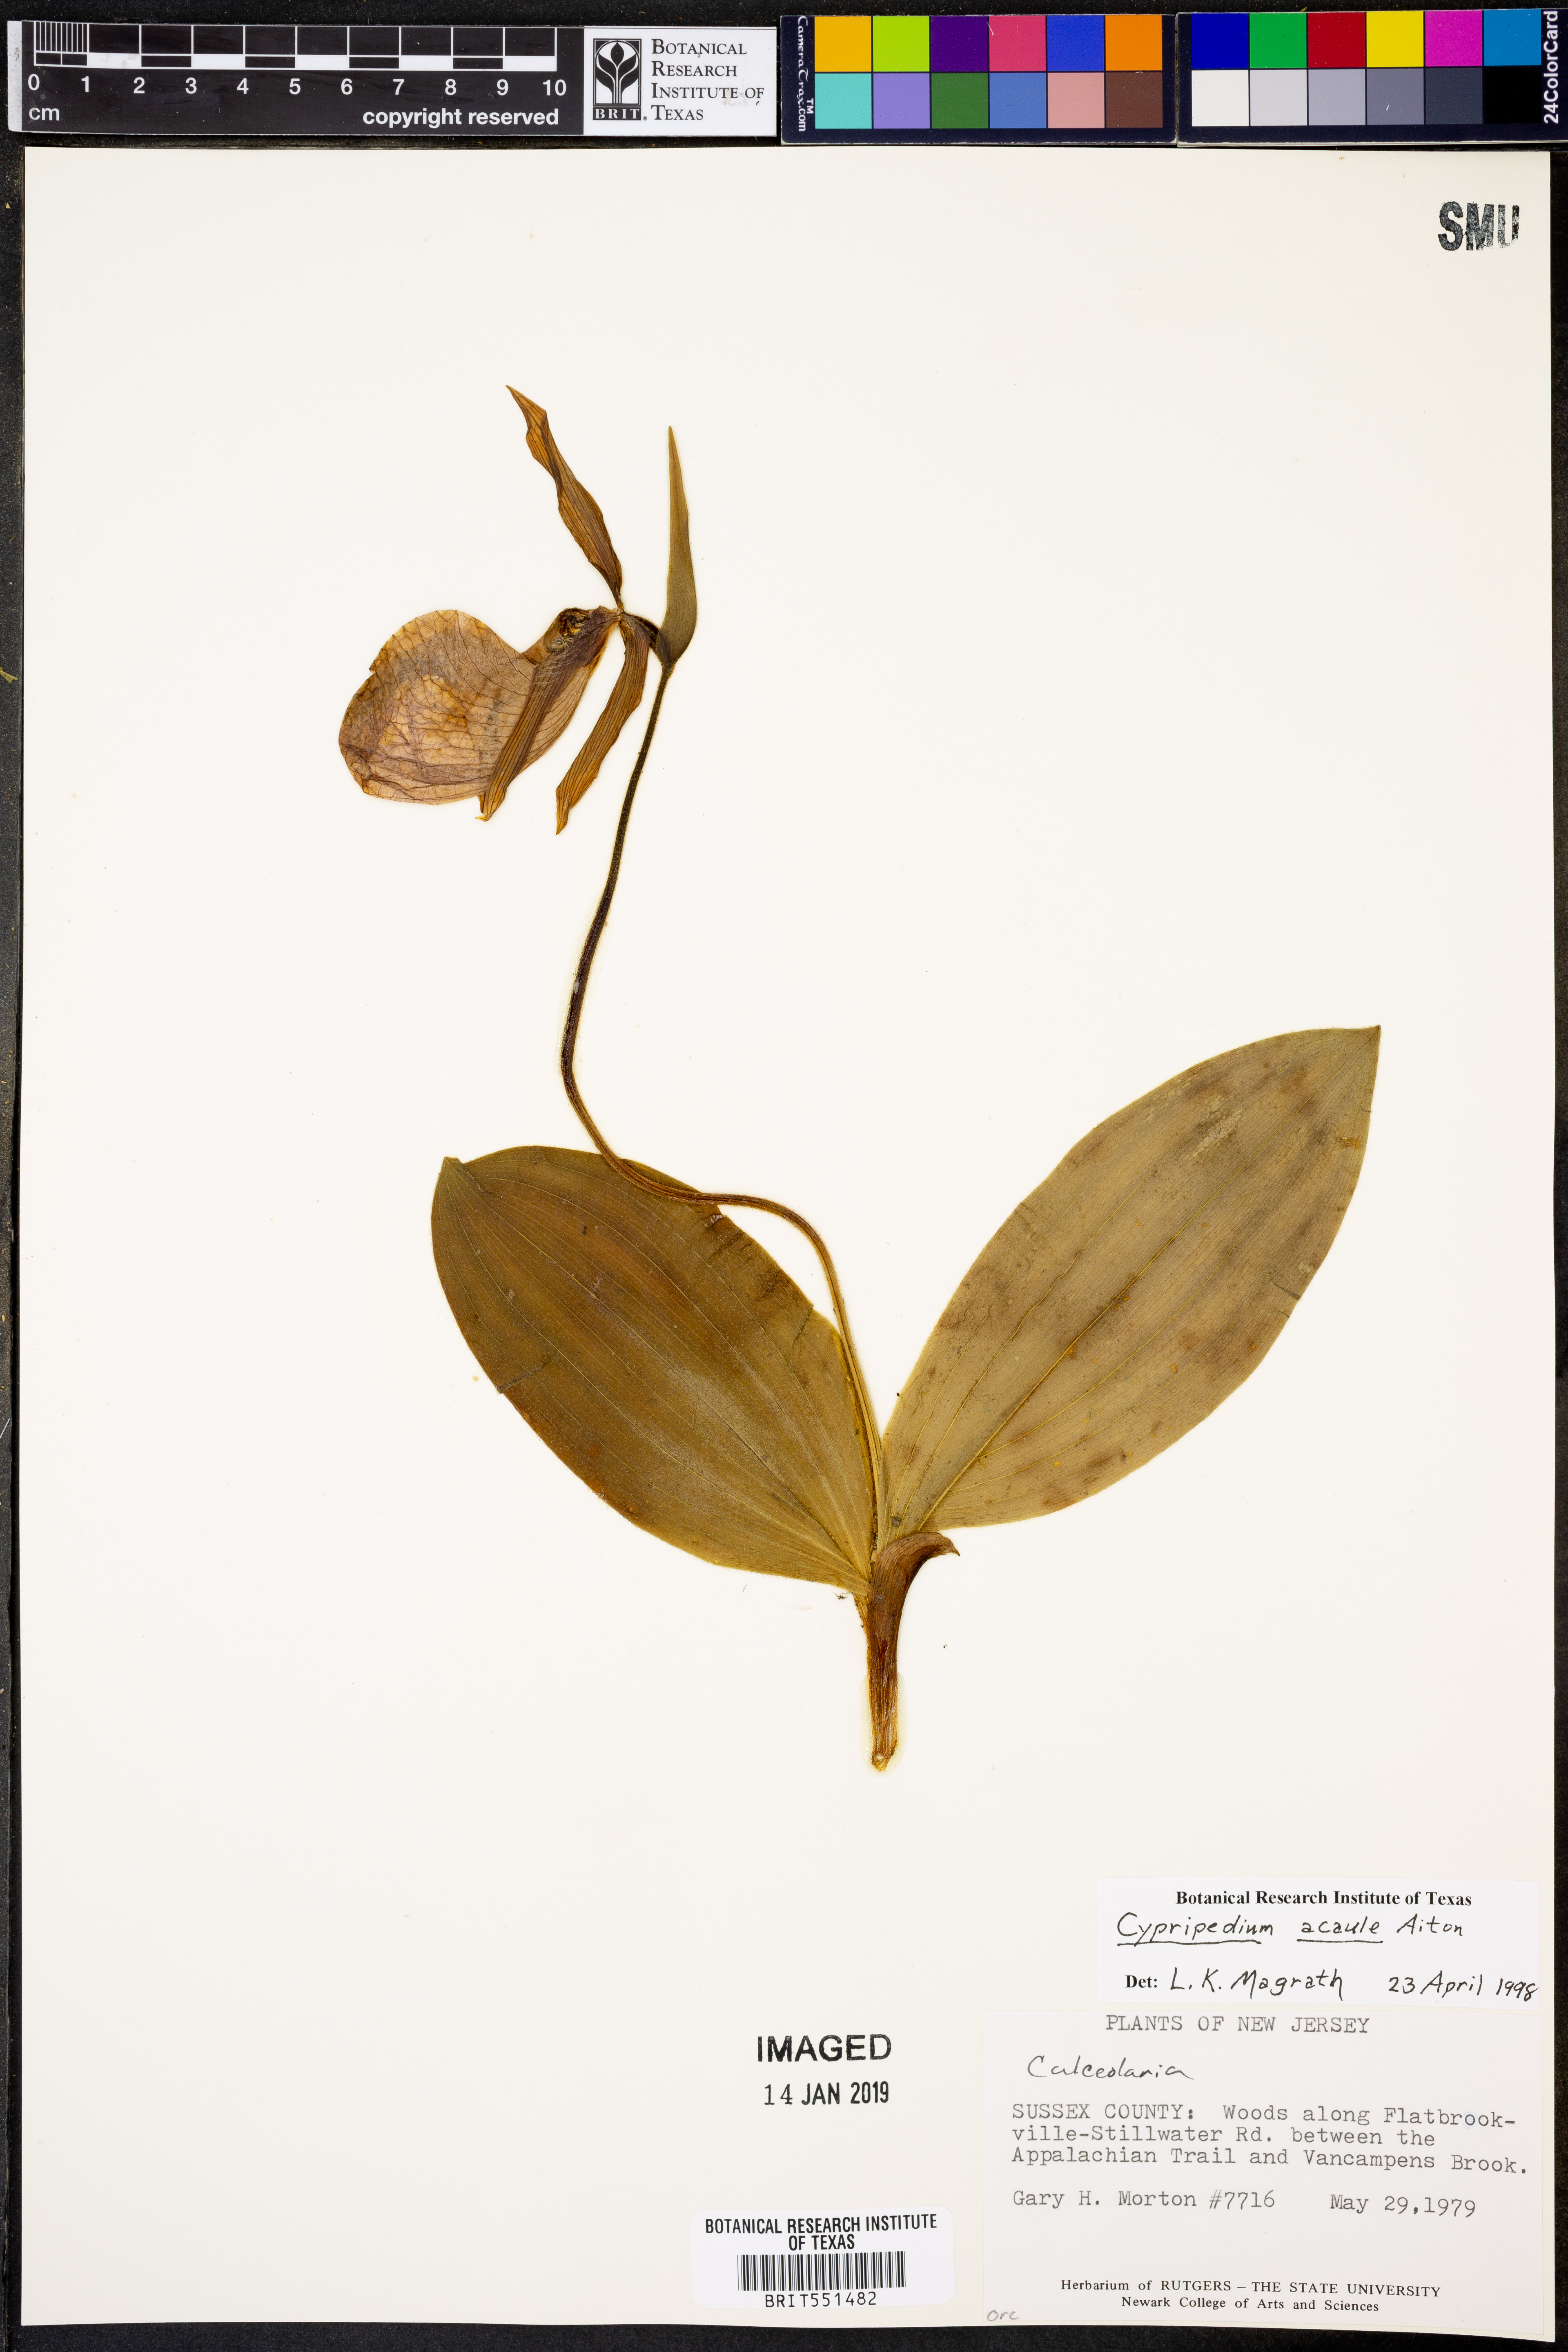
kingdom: Plantae
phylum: Tracheophyta
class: Liliopsida
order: Asparagales
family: Orchidaceae
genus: Cypripedium
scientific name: Cypripedium acaule
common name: Pink lady's-slipper
